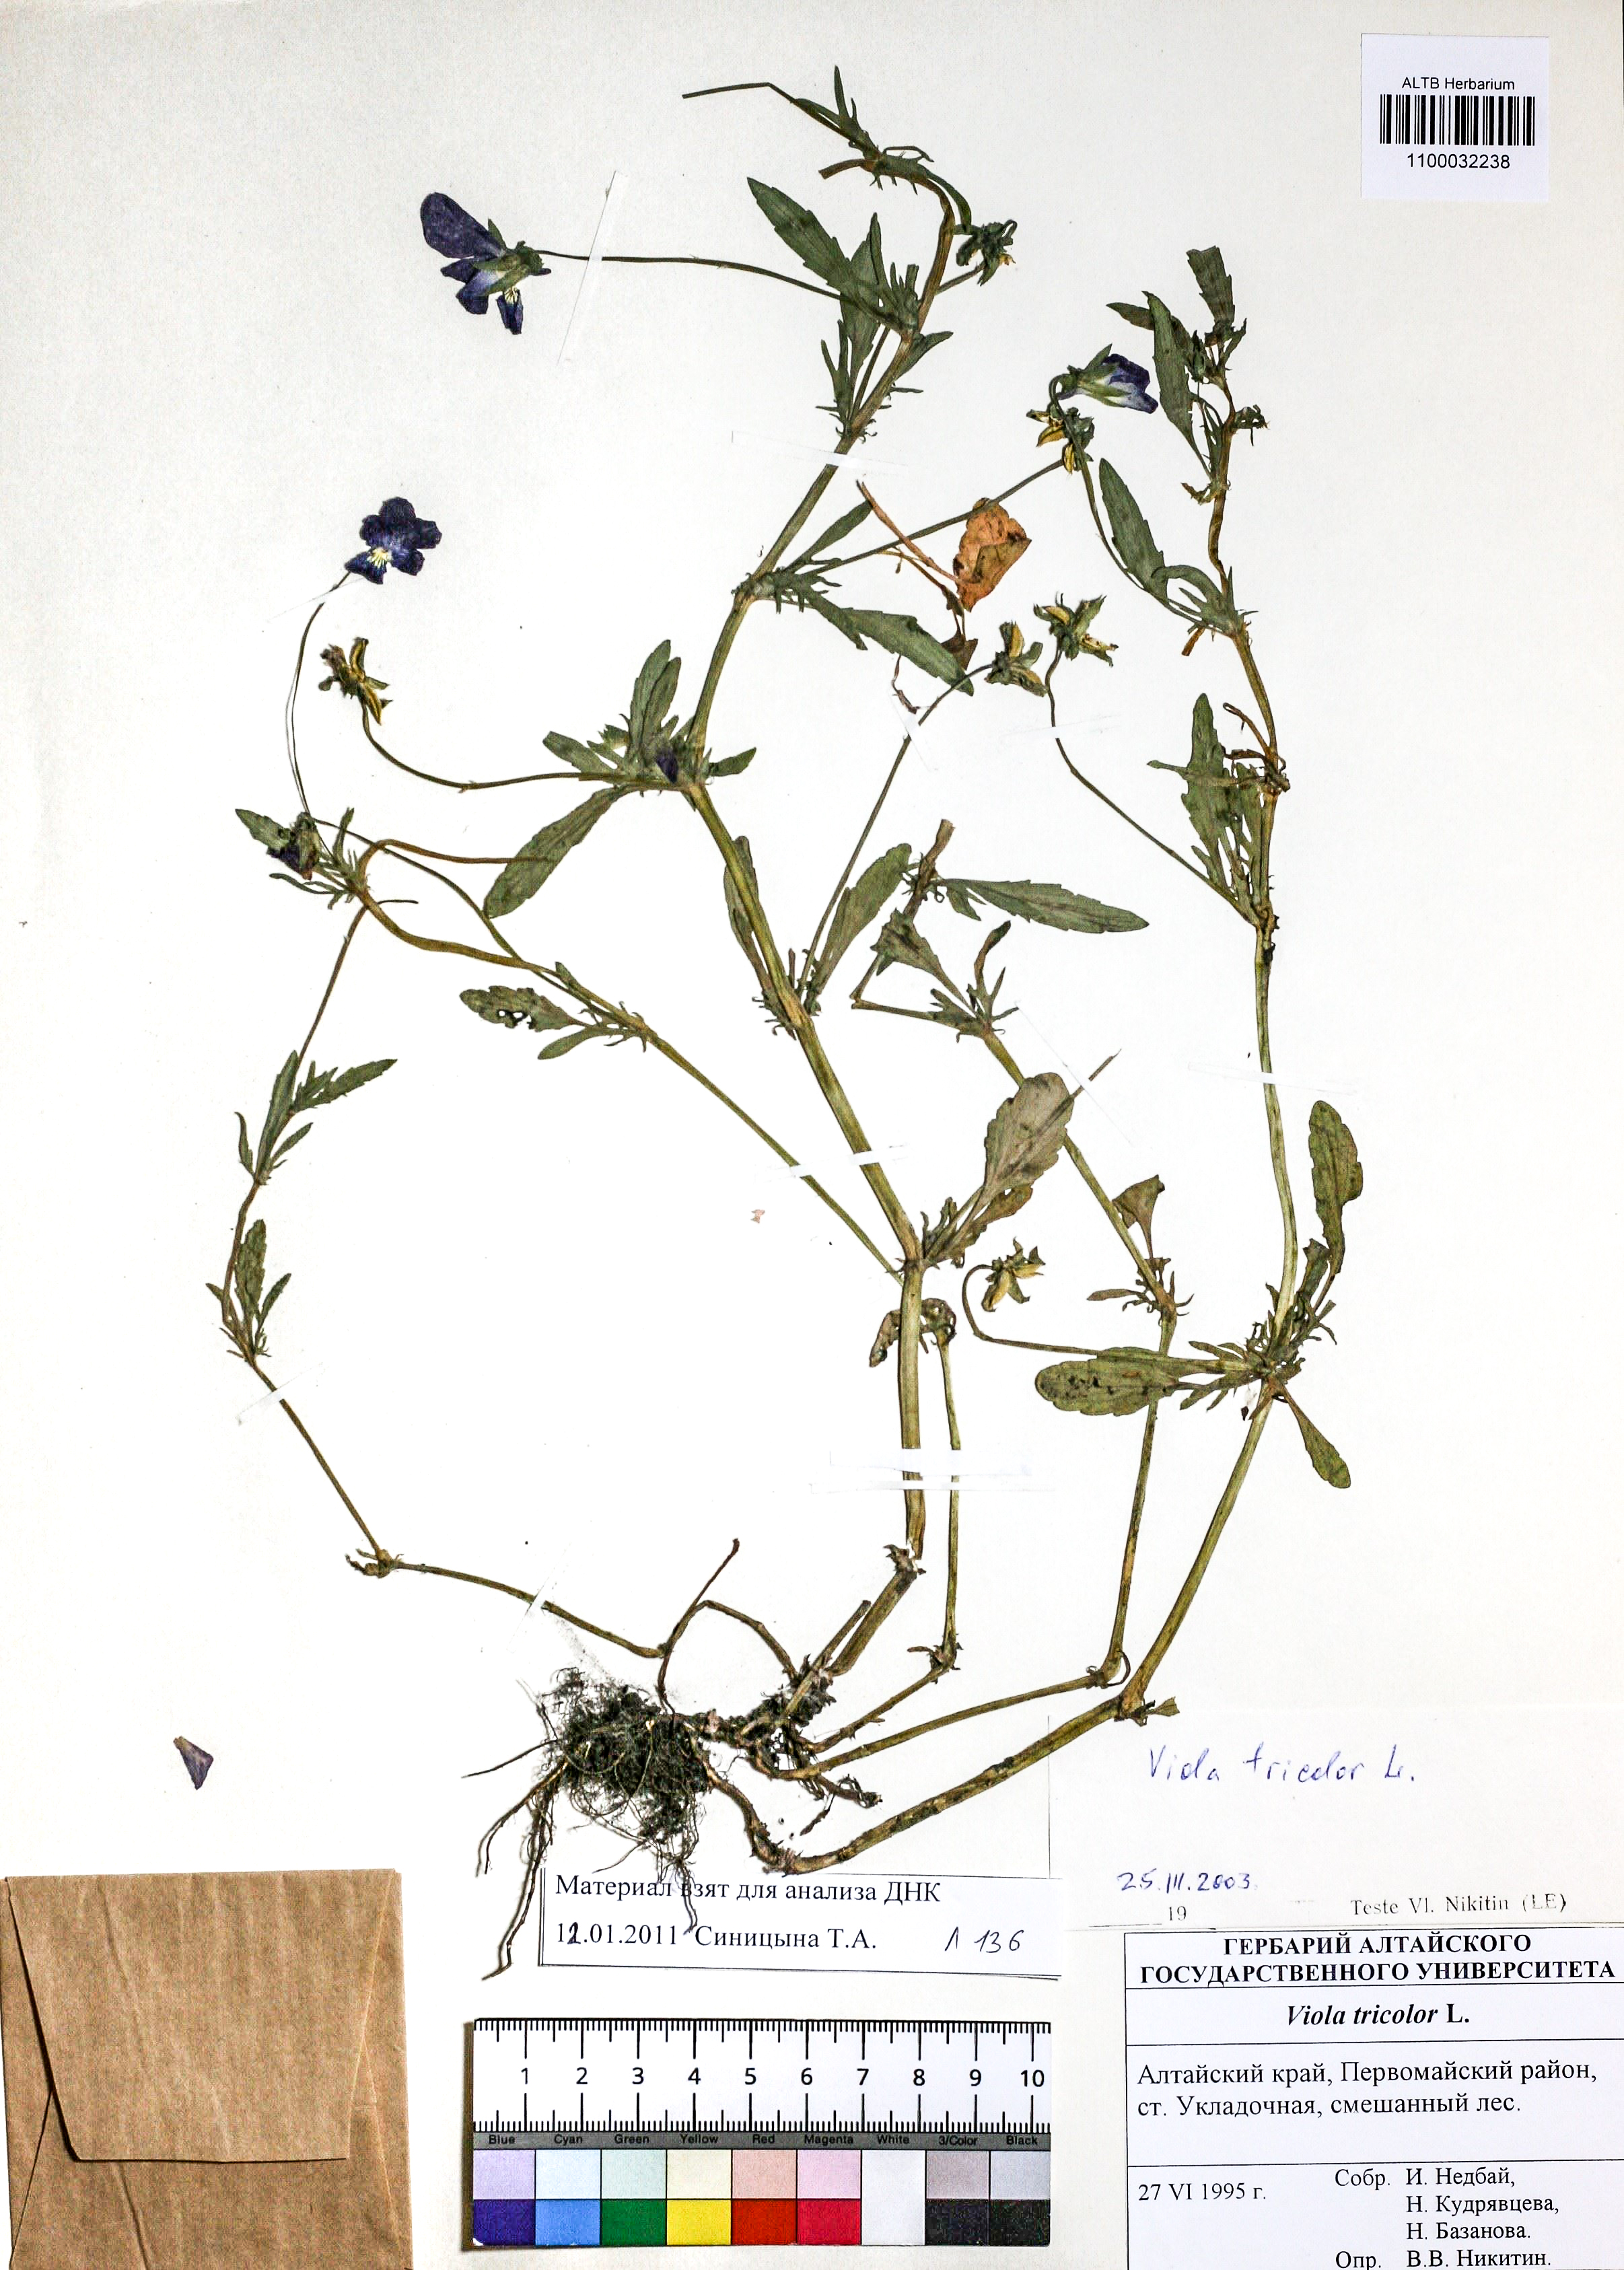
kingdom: Plantae
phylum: Tracheophyta
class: Magnoliopsida
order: Malpighiales
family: Violaceae
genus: Viola
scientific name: Viola tricolor
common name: Pansy
